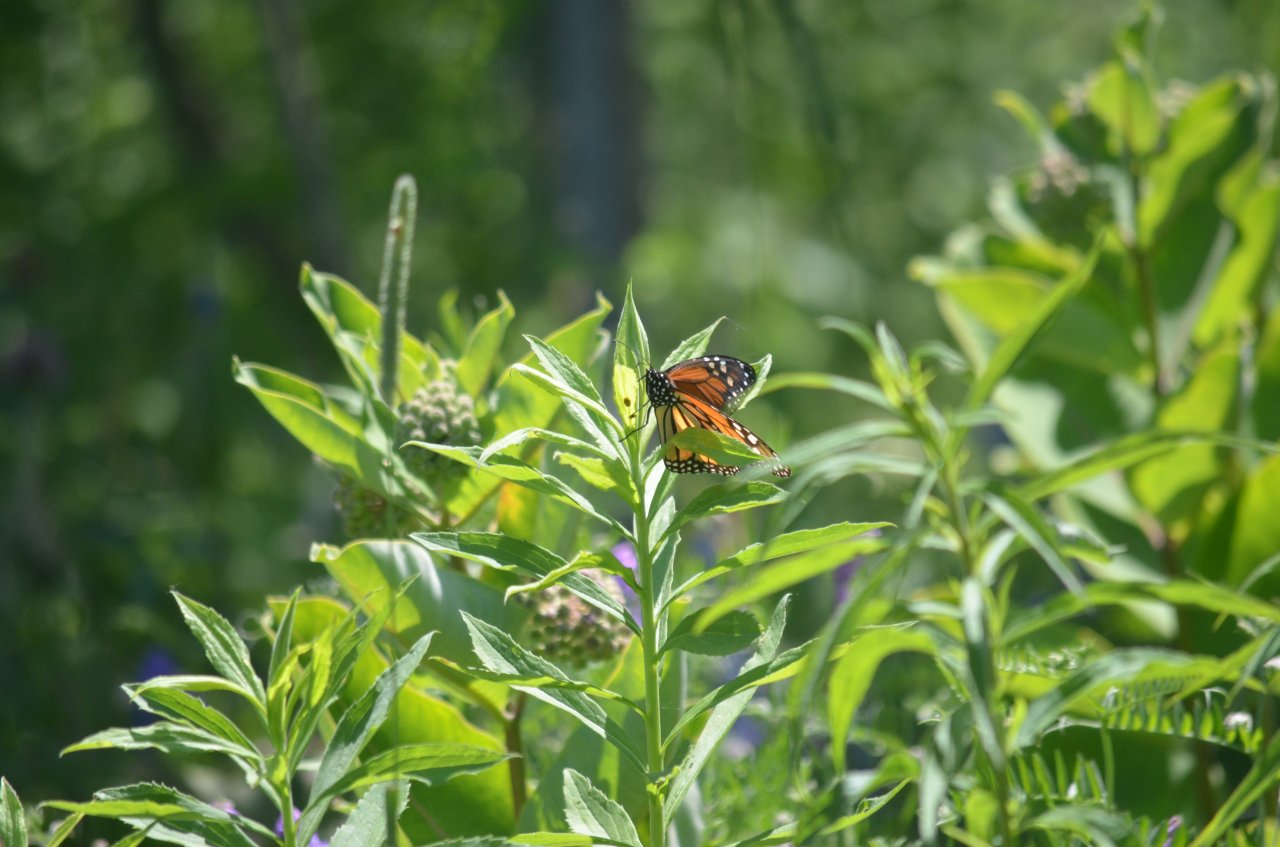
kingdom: Animalia
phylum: Arthropoda
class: Insecta
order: Lepidoptera
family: Nymphalidae
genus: Danaus
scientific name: Danaus plexippus
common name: Monarch
